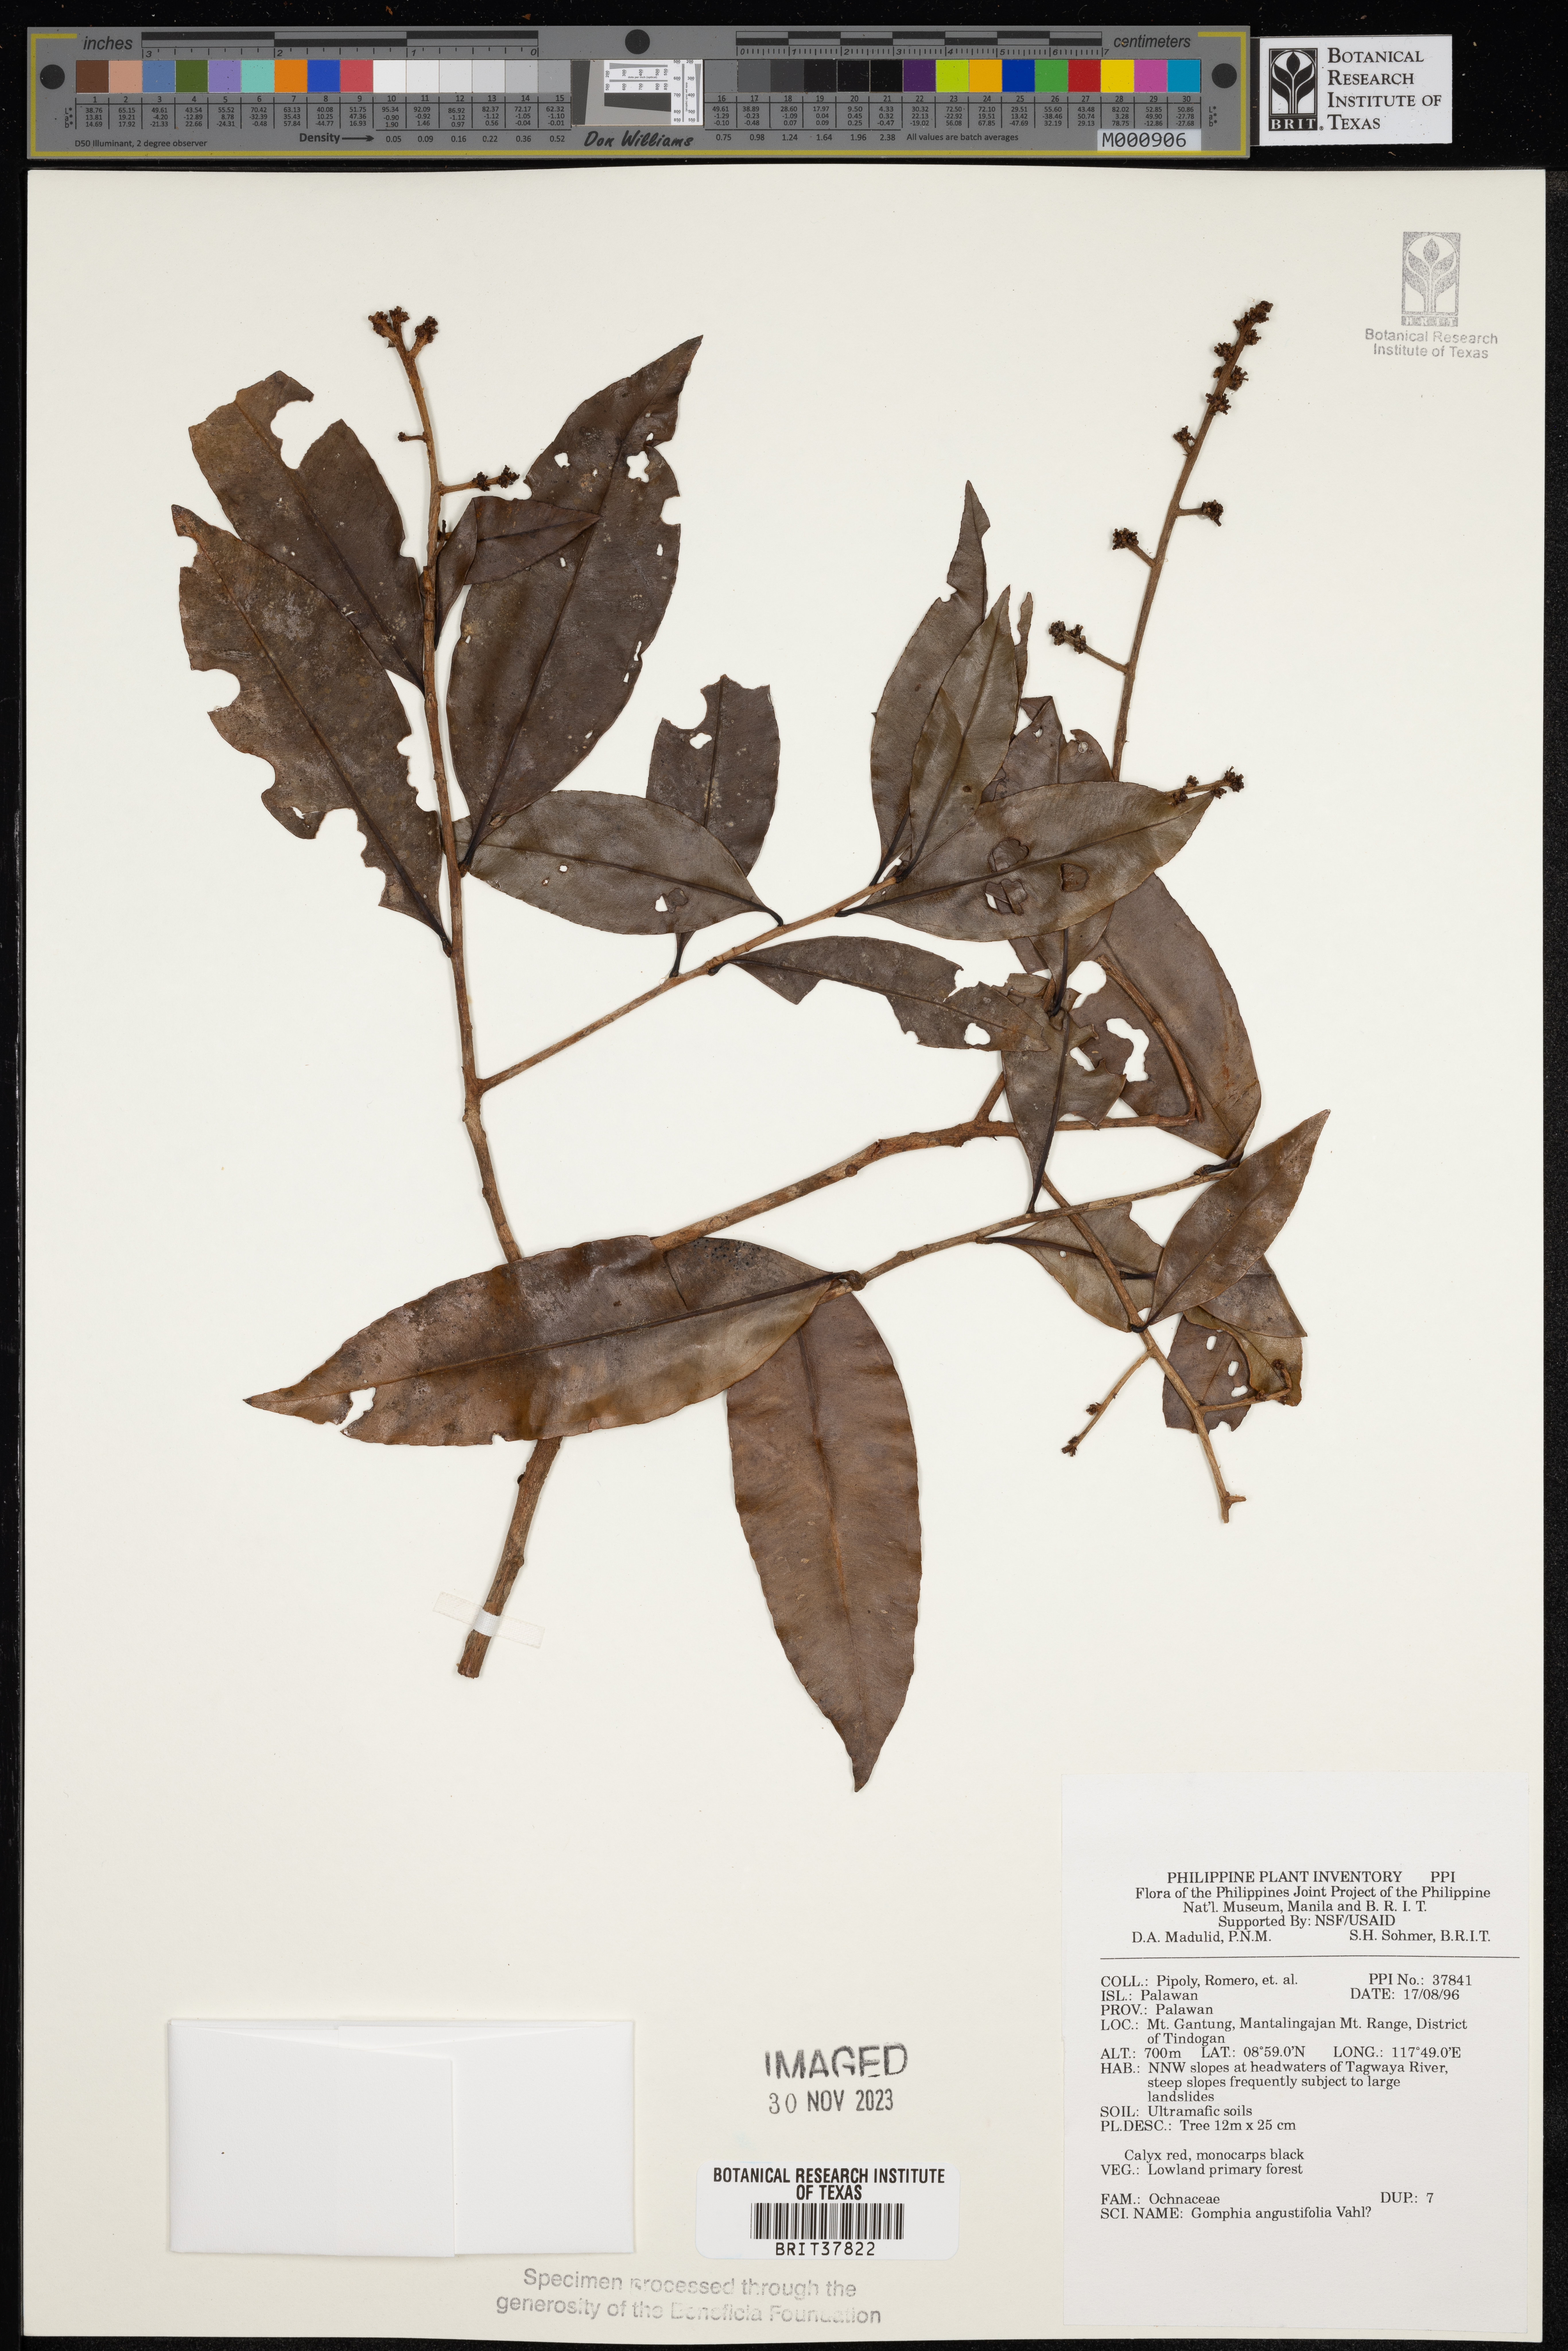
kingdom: Plantae
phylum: Tracheophyta
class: Magnoliopsida
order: Malpighiales
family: Ochnaceae
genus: Gomphia
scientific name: Gomphia serrata
